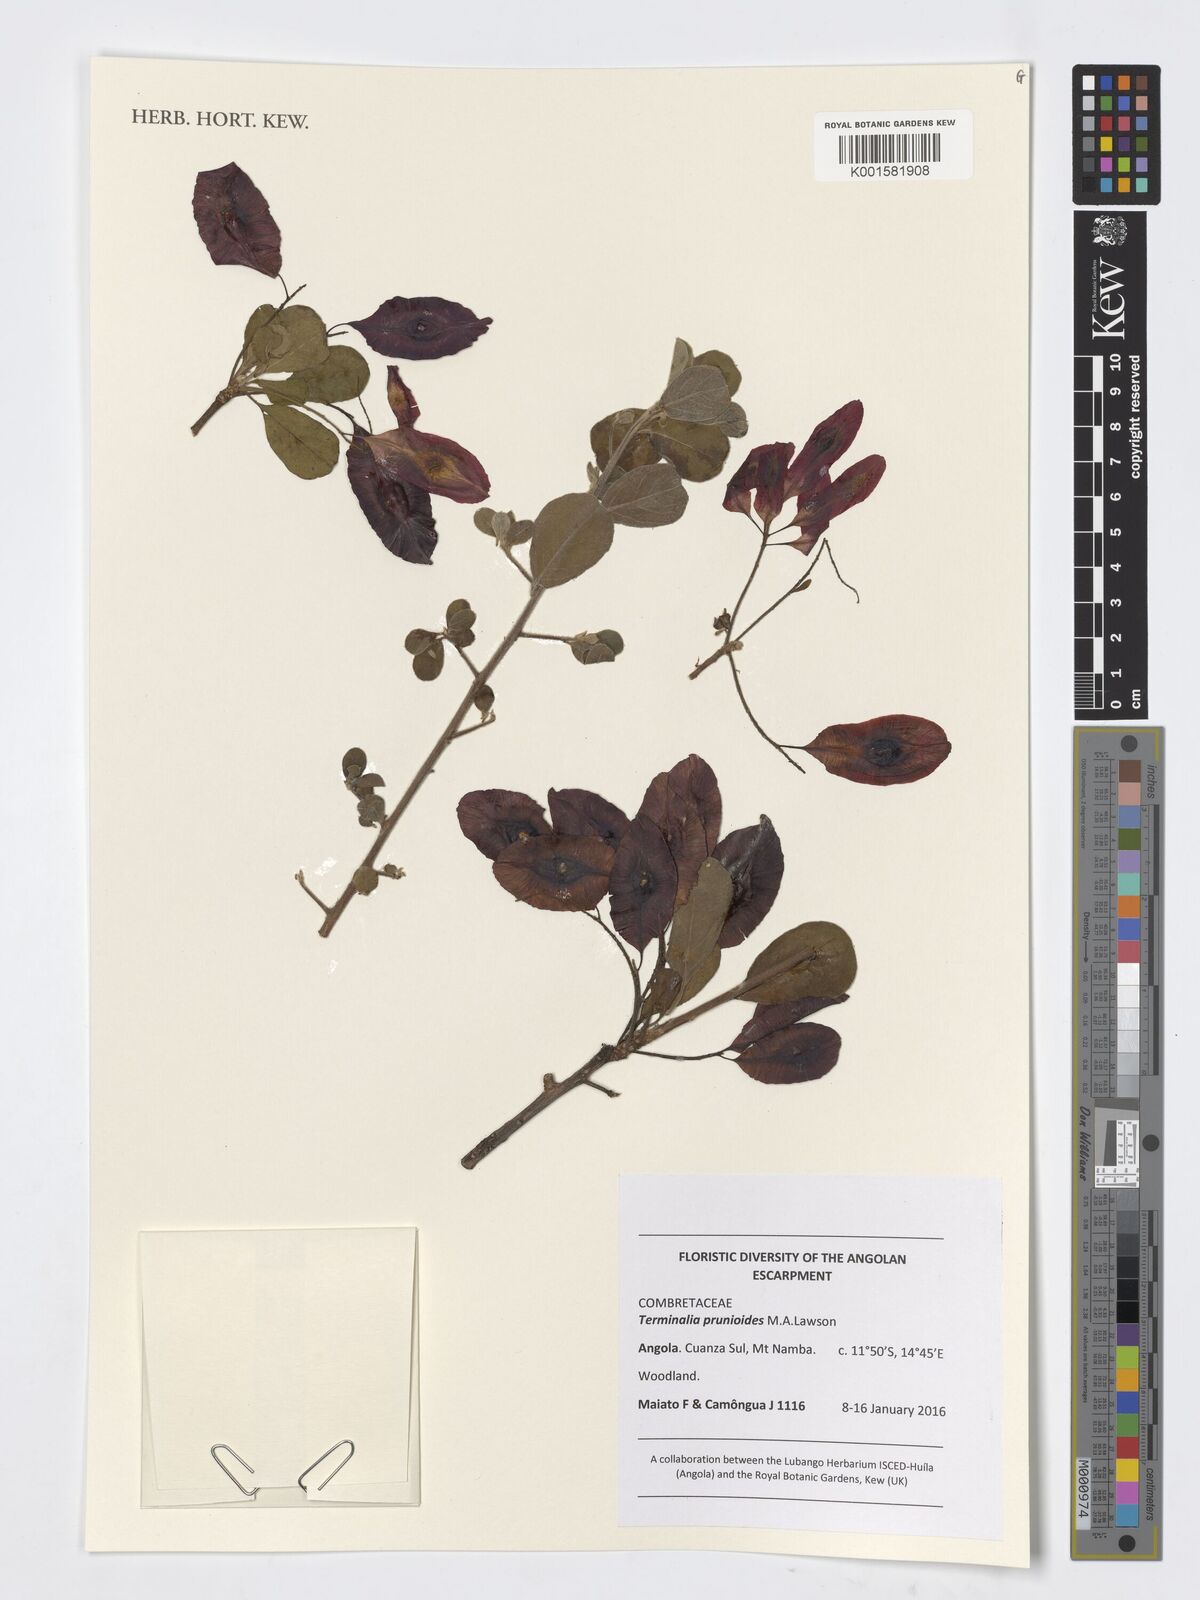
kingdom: Plantae
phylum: Tracheophyta
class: Magnoliopsida
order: Myrtales
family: Combretaceae
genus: Terminalia
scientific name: Terminalia prunioides
